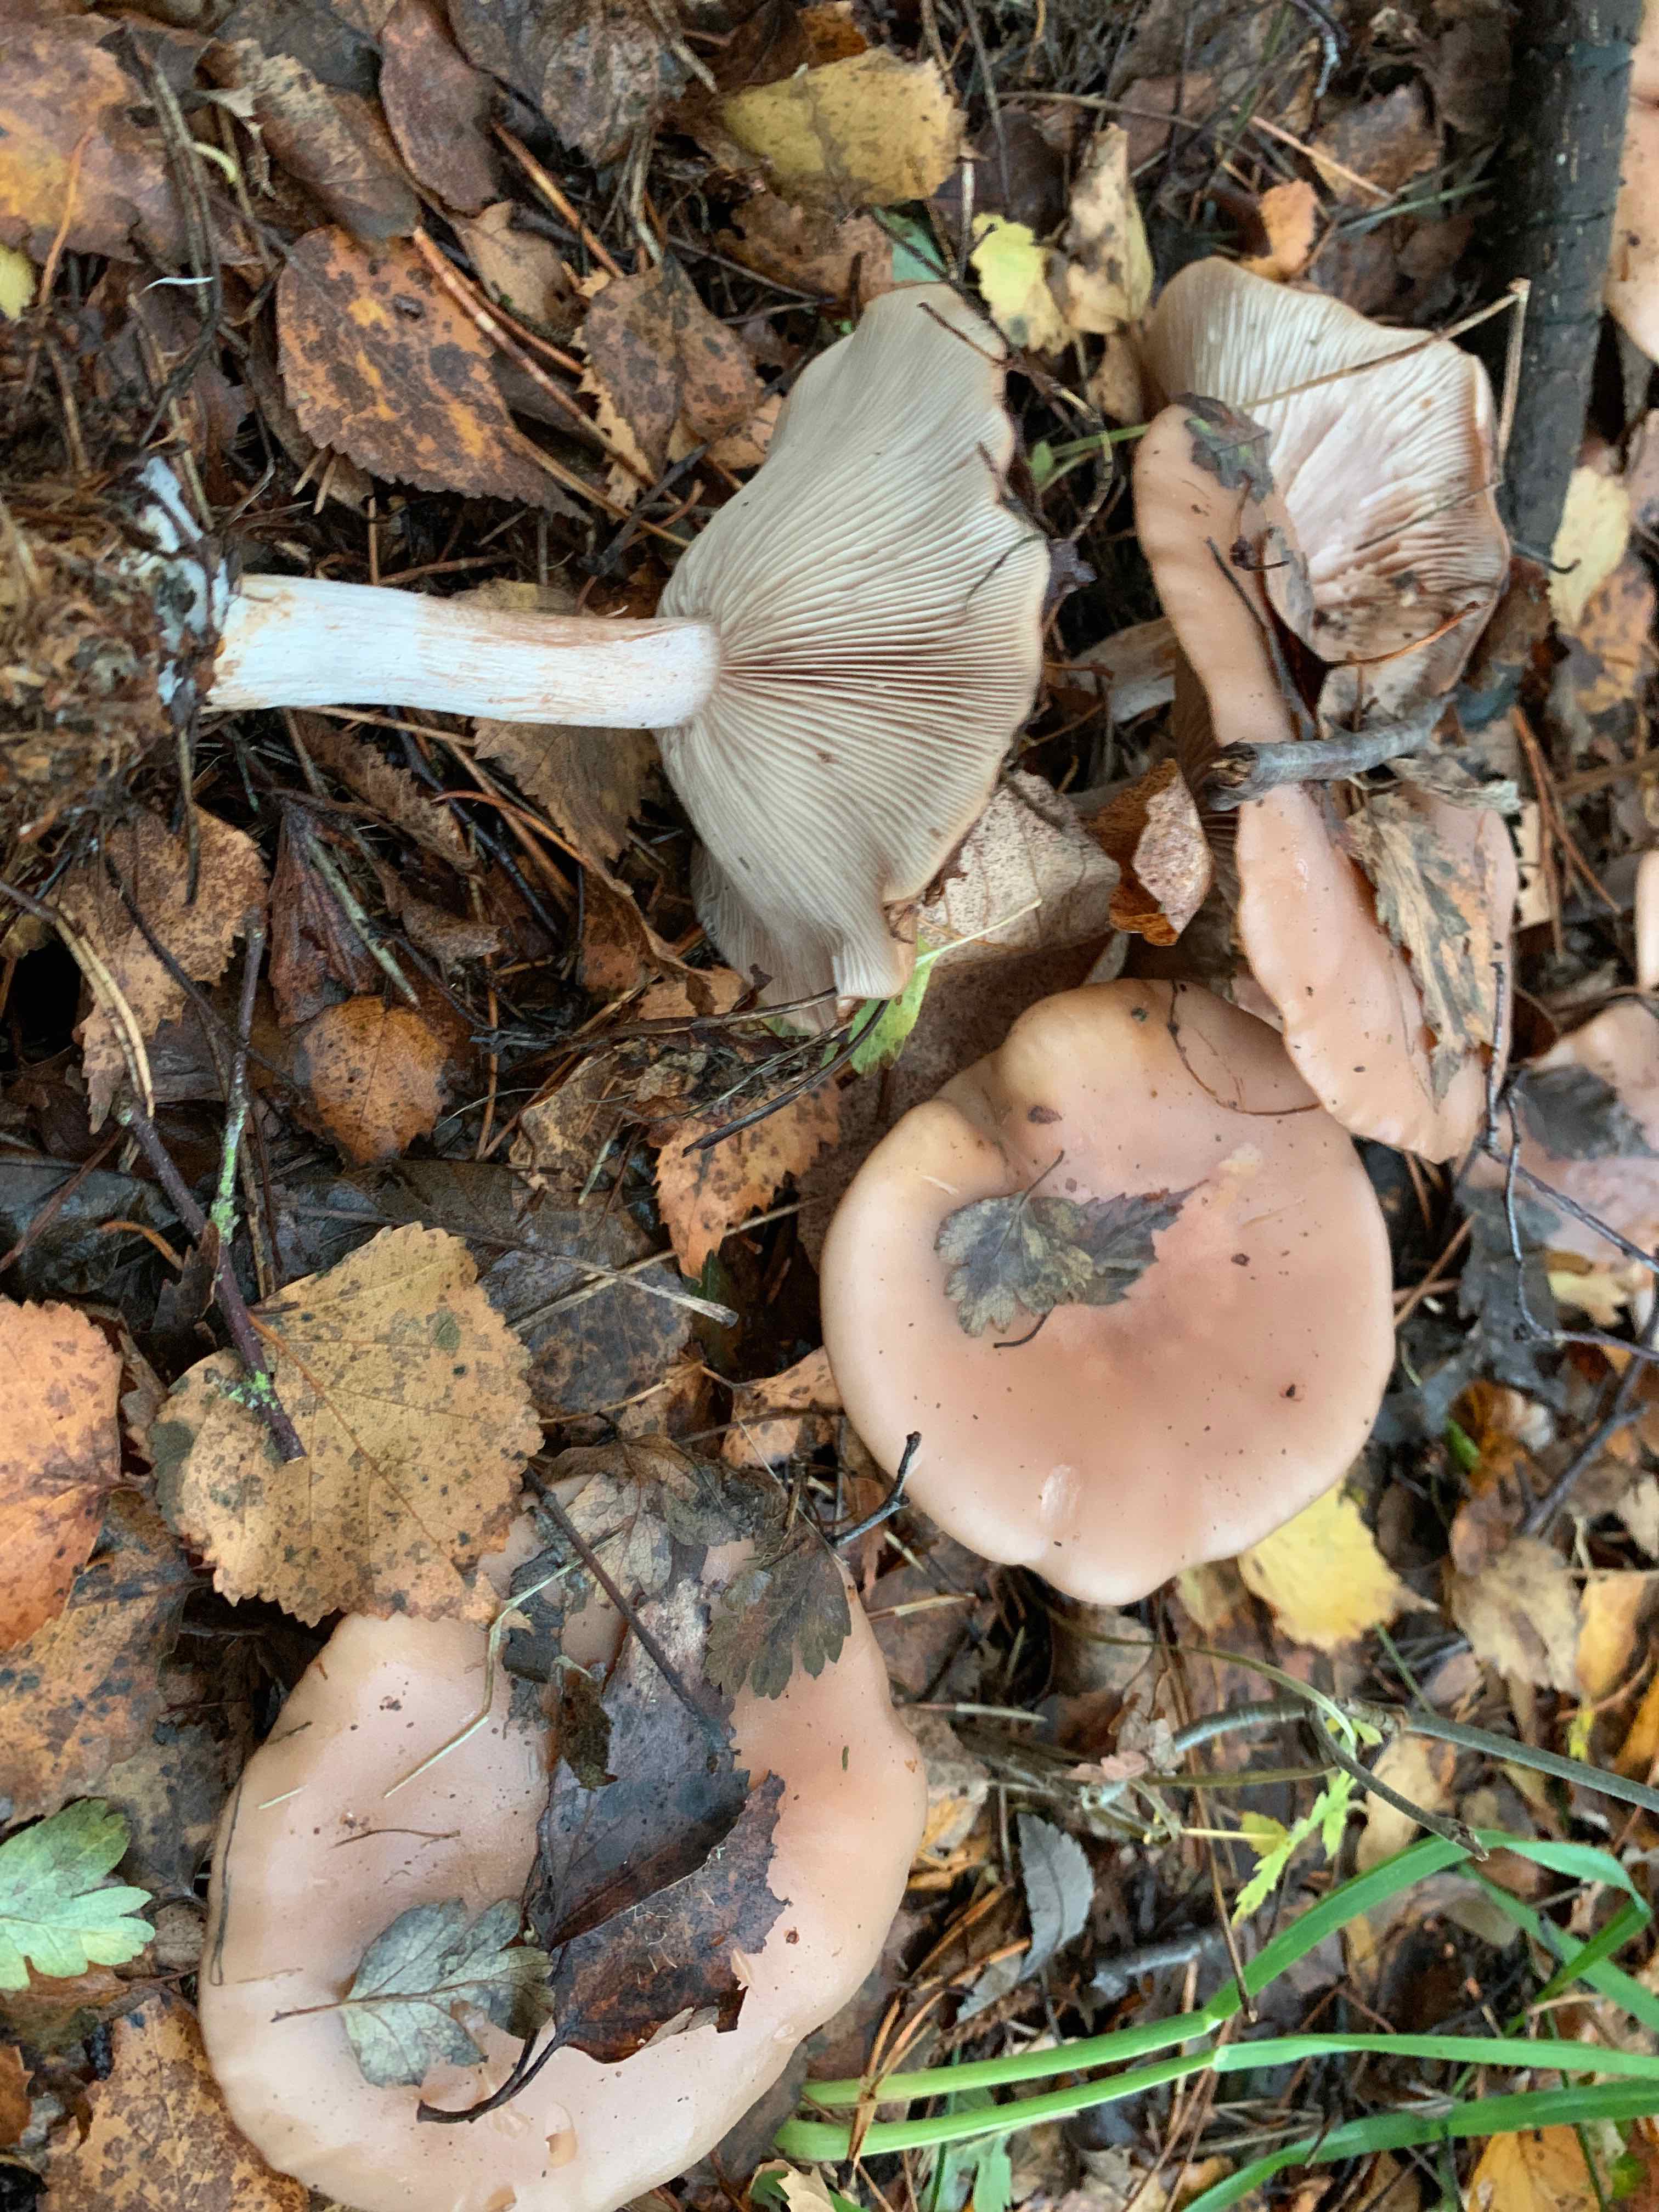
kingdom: Fungi
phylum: Basidiomycota
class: Agaricomycetes
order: Agaricales
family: Tricholomataceae
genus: Lepista
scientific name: Lepista nuda
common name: violet hekseringshat
